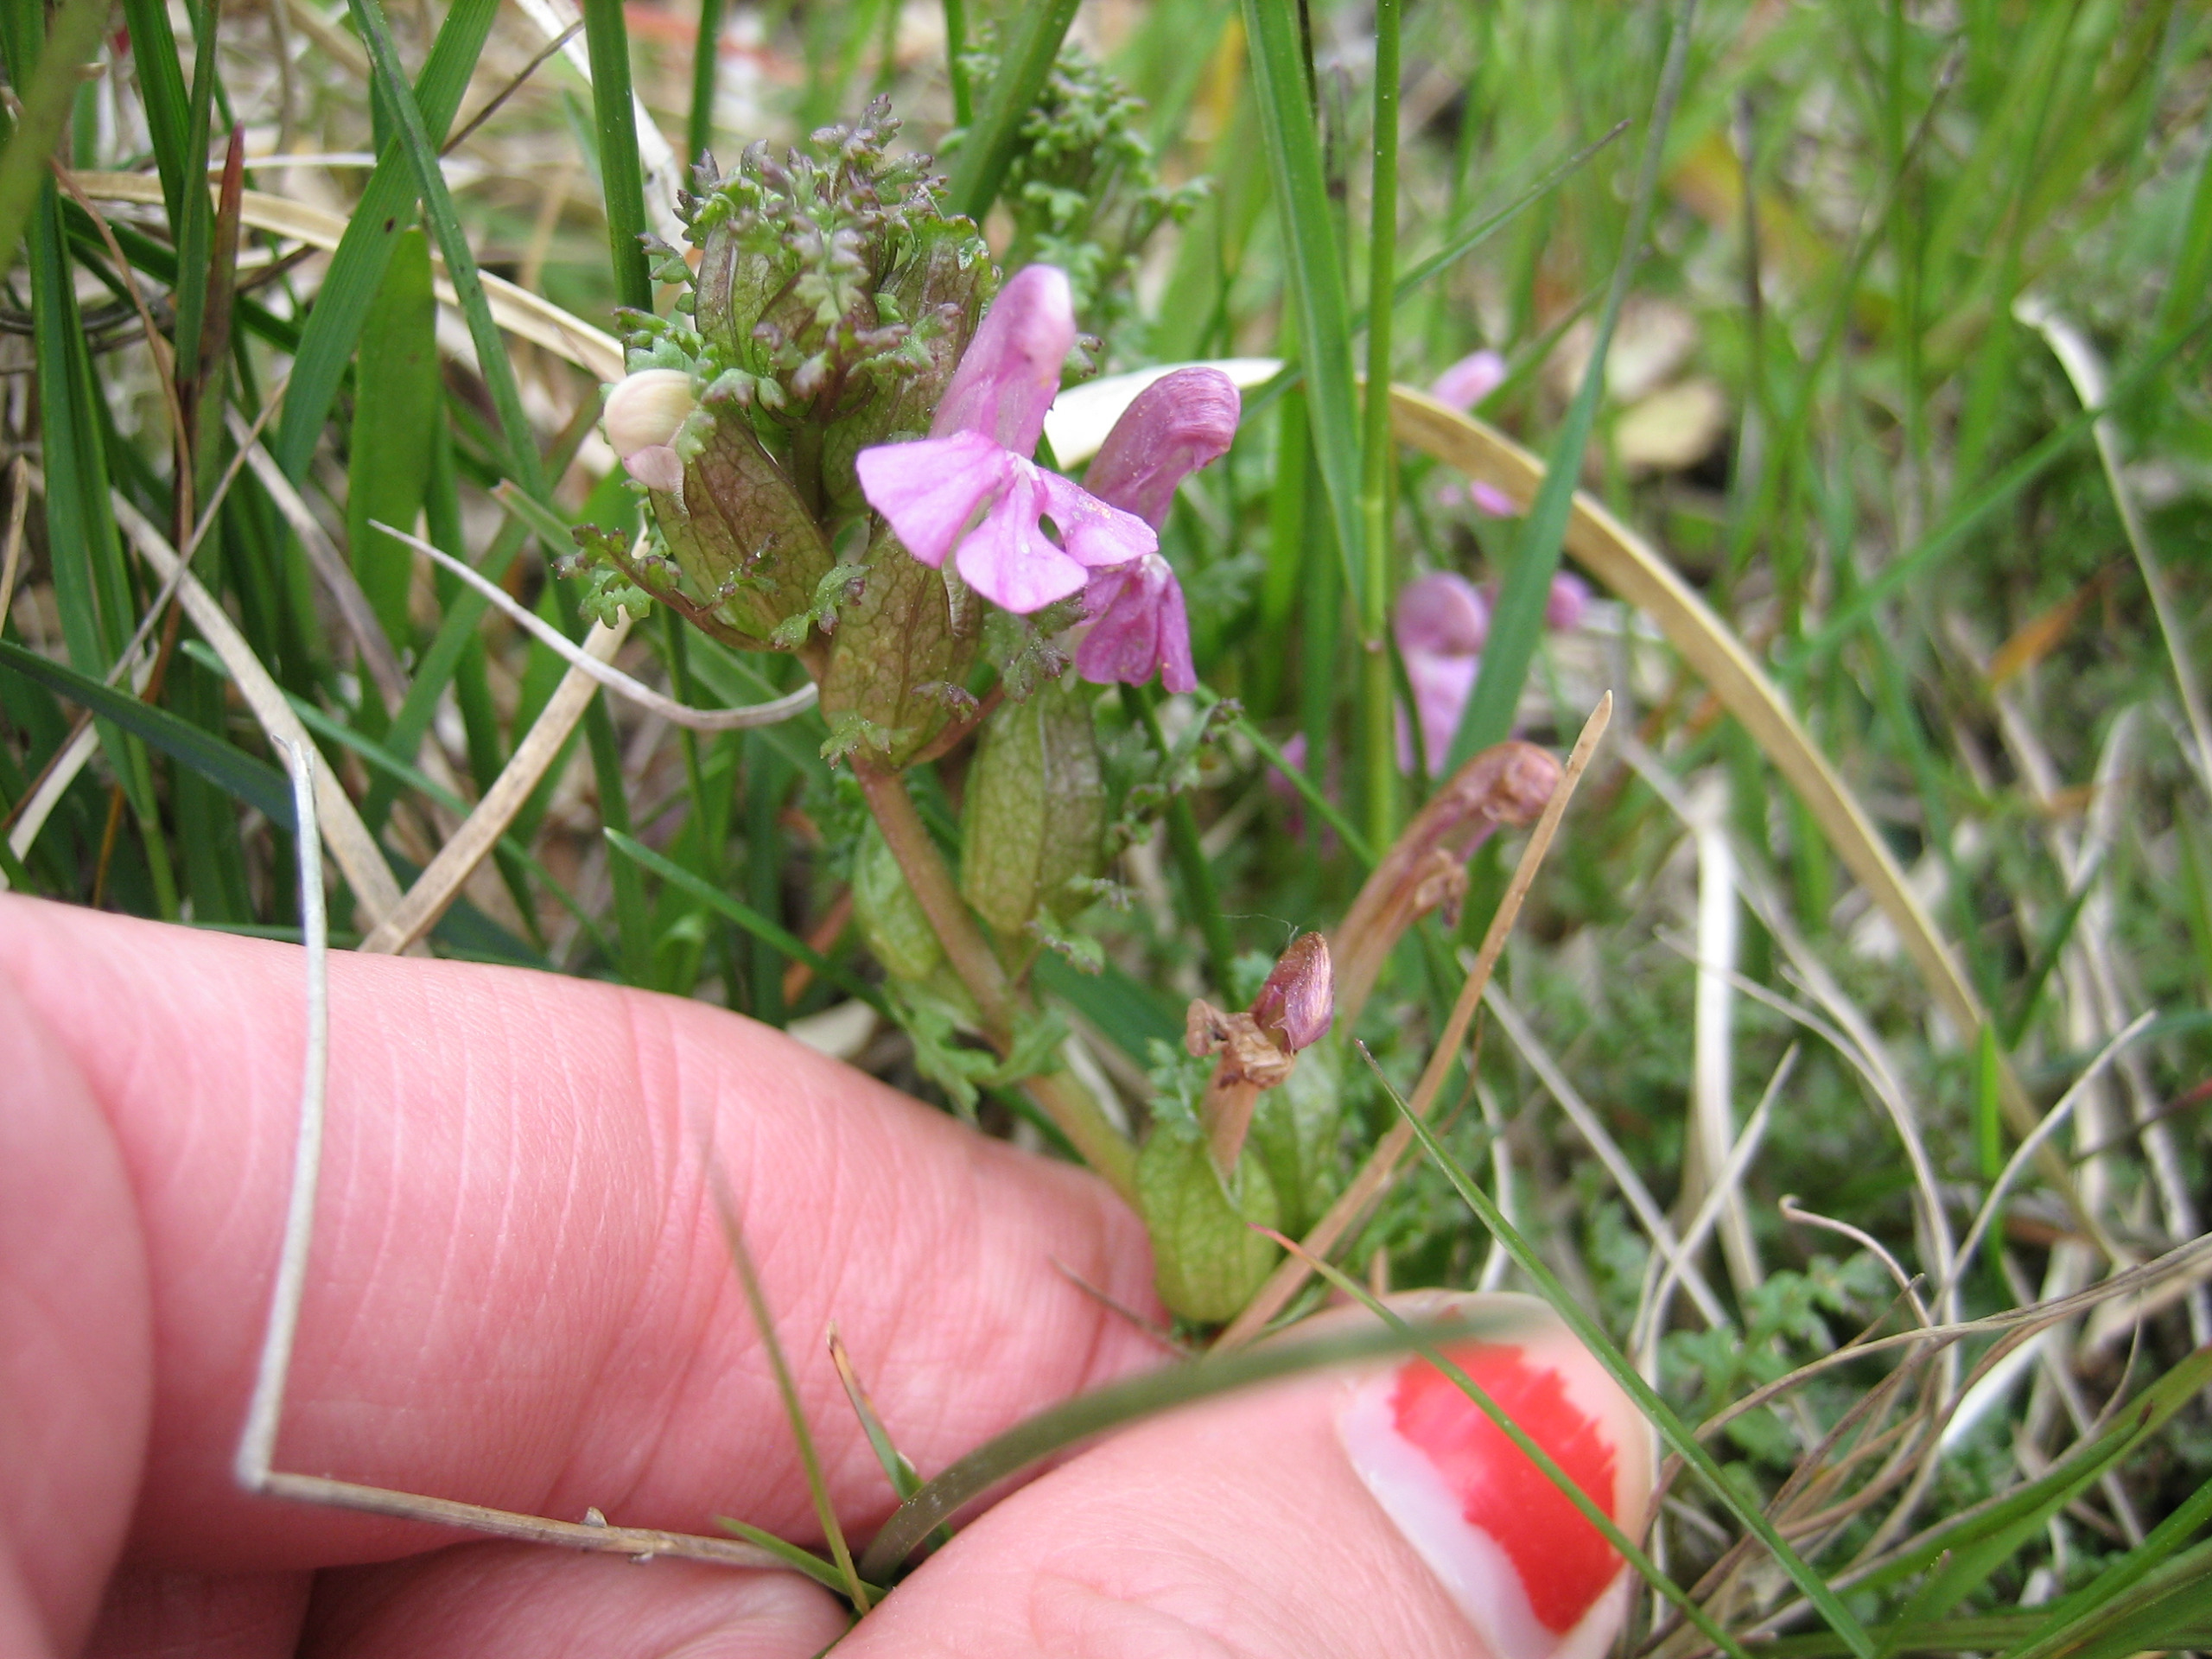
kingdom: Plantae
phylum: Tracheophyta
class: Magnoliopsida
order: Lamiales
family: Orobanchaceae
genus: Pedicularis
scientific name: Pedicularis sylvatica
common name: Mose-troldurt
